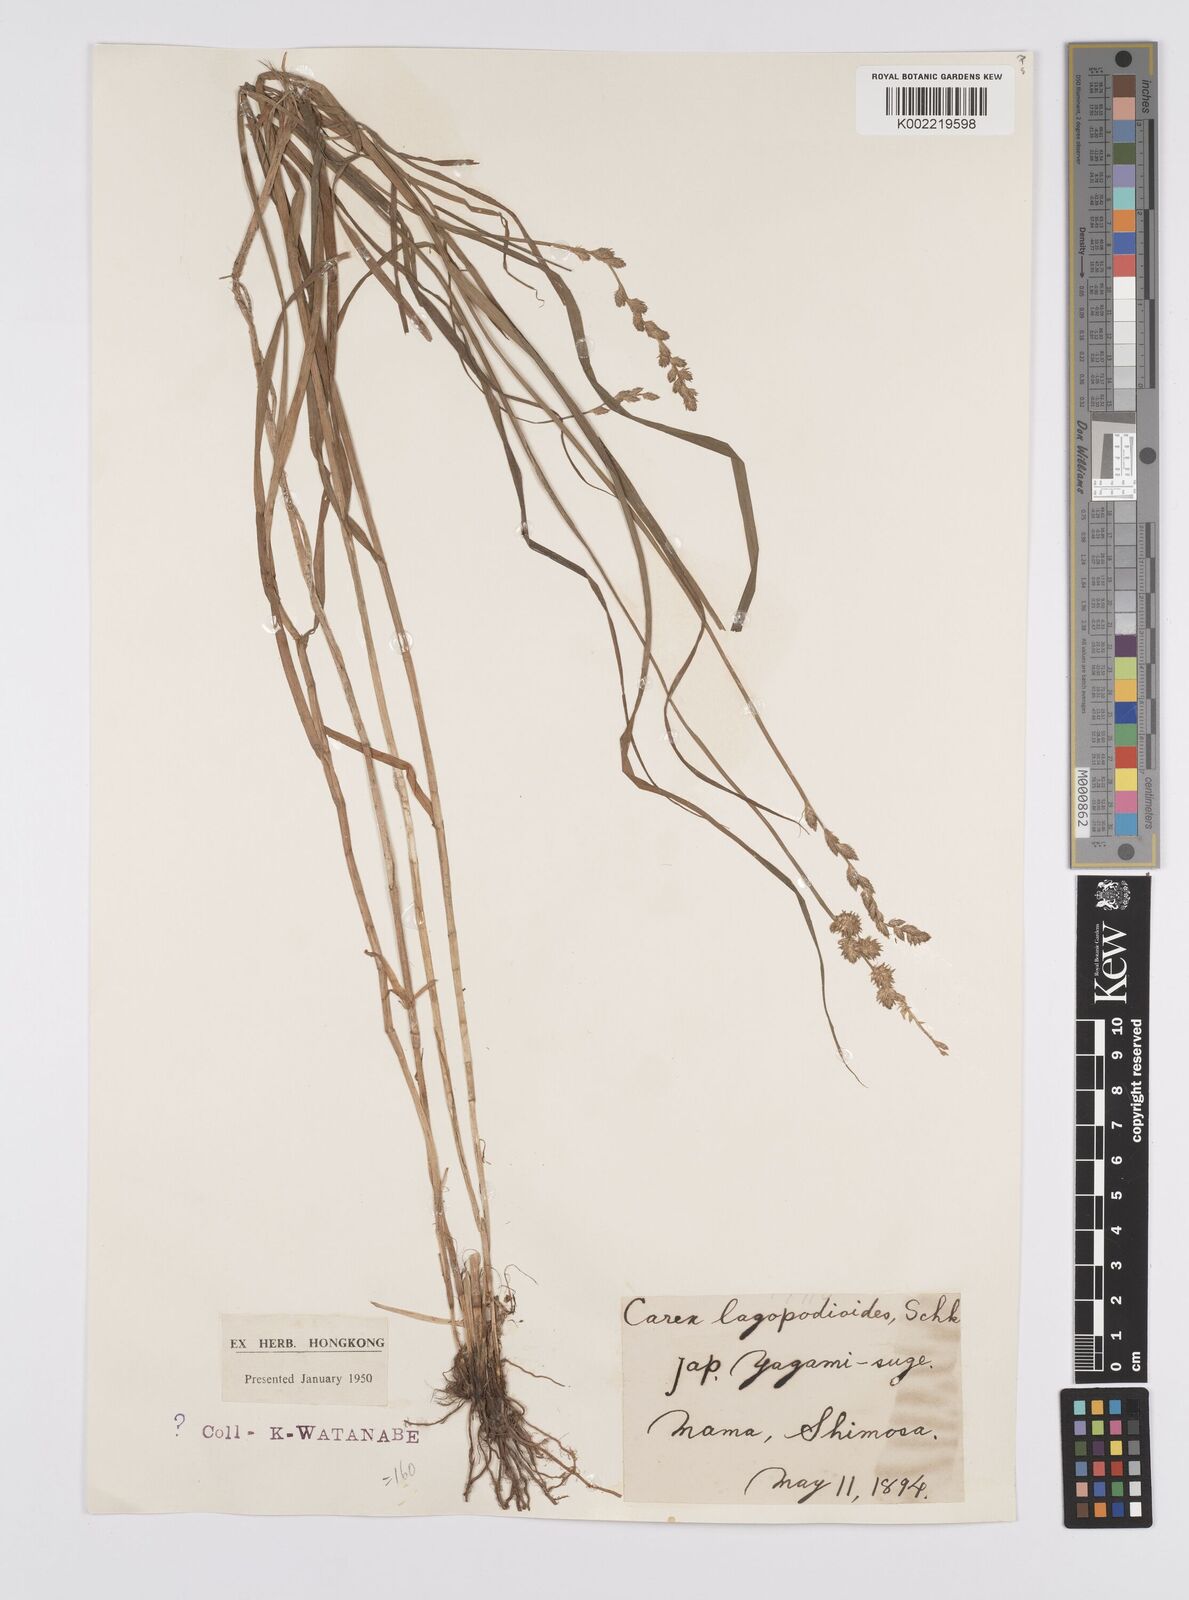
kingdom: Plantae
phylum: Tracheophyta
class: Liliopsida
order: Poales
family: Cyperaceae
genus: Carex
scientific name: Carex maackii
